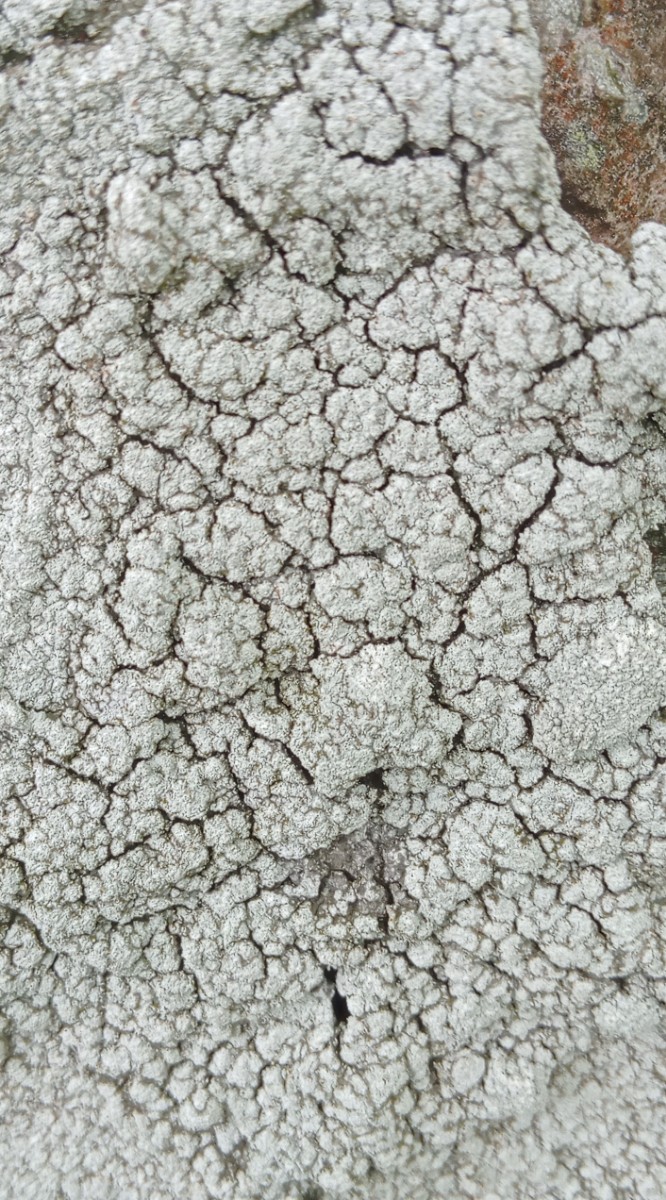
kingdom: Fungi
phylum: Ascomycota
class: Lecanoromycetes
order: Pertusariales
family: Pertusariaceae
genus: Lepra
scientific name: Lepra amara
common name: bitter prikvortelav
